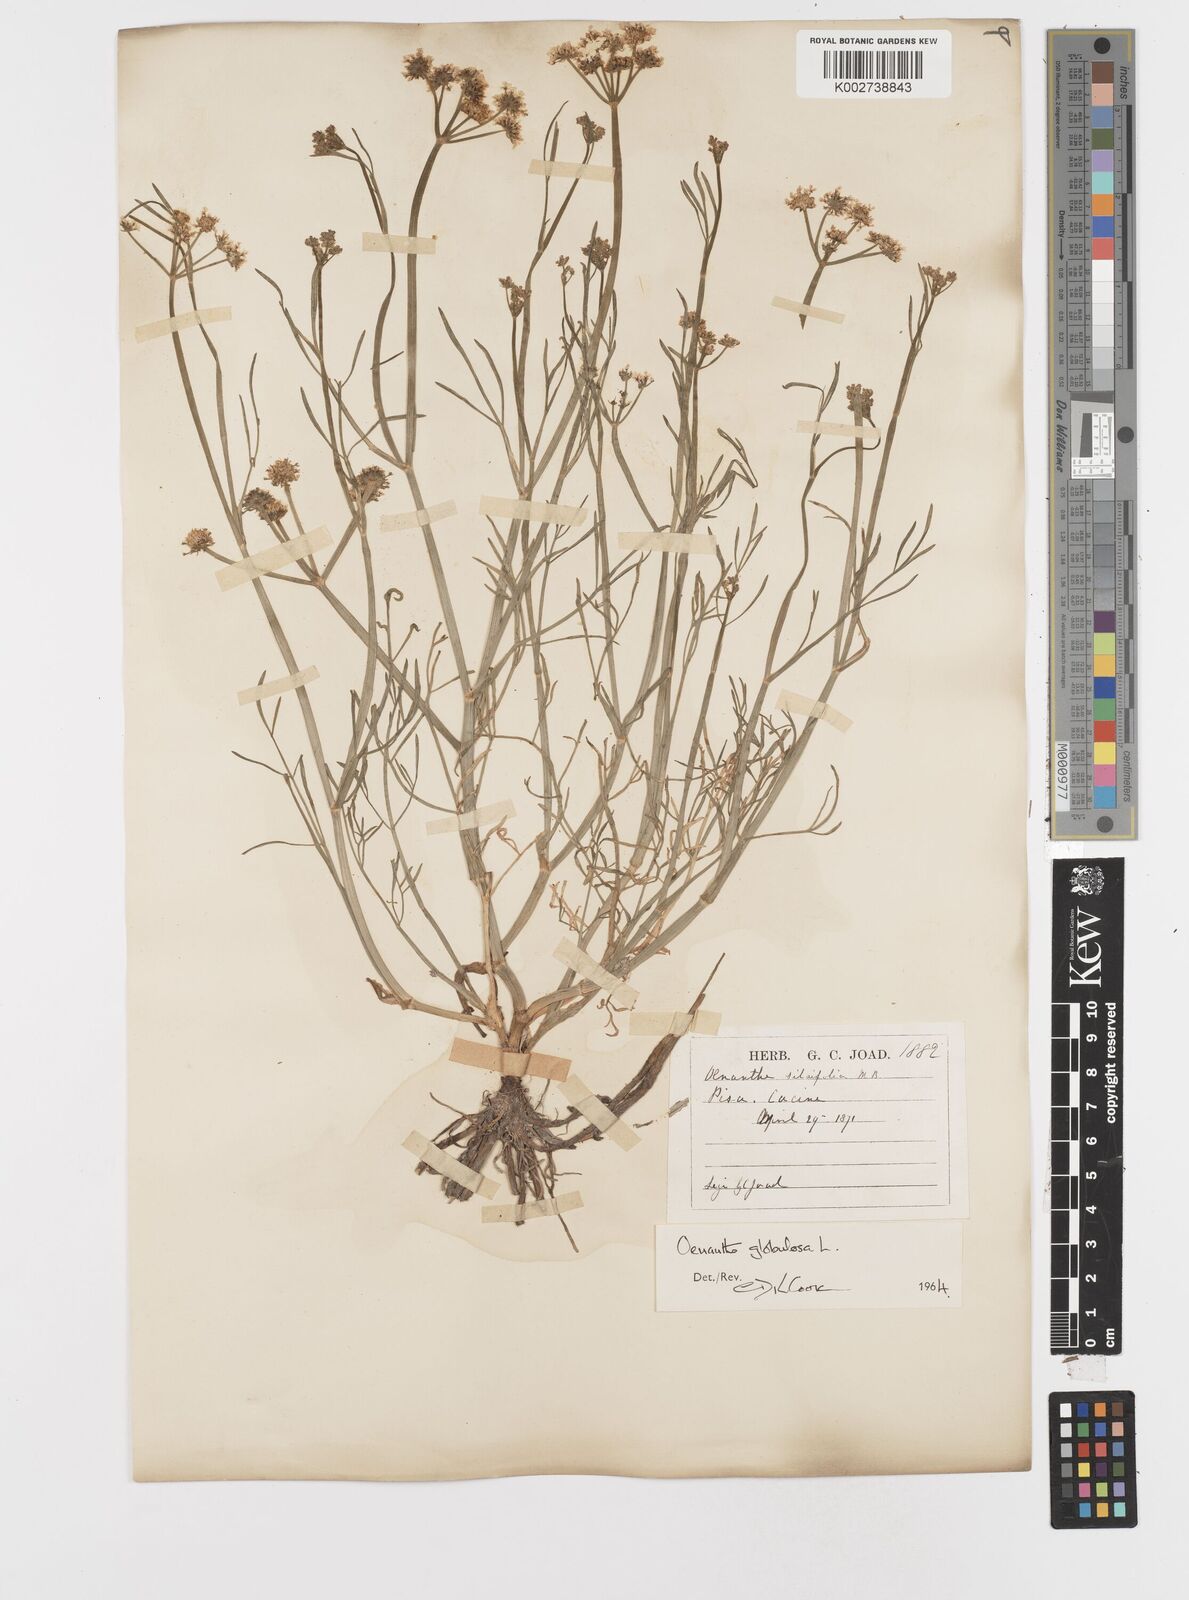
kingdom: Plantae
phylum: Tracheophyta
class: Magnoliopsida
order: Apiales
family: Apiaceae
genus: Oenanthe
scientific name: Oenanthe silaifolia
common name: Narrow-leaved water-dropwort
